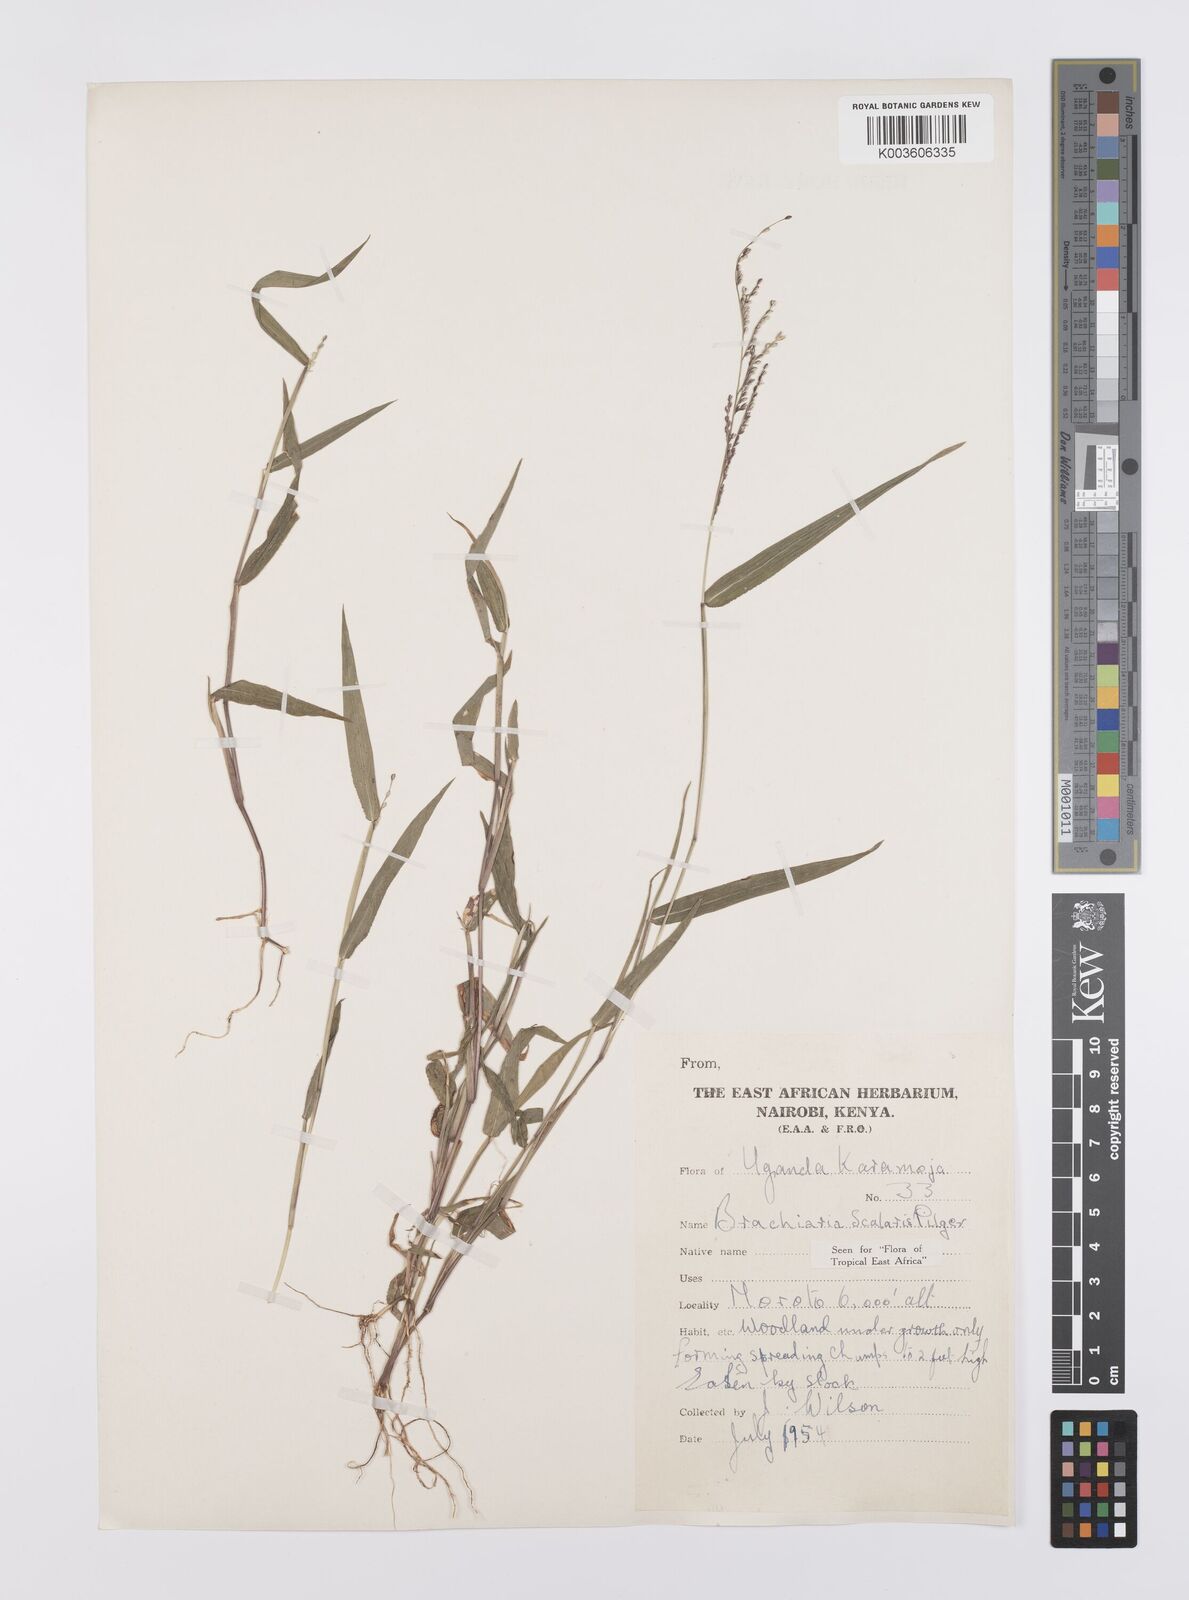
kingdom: Plantae
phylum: Tracheophyta
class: Liliopsida
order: Poales
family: Poaceae
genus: Urochloa
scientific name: Urochloa comata
